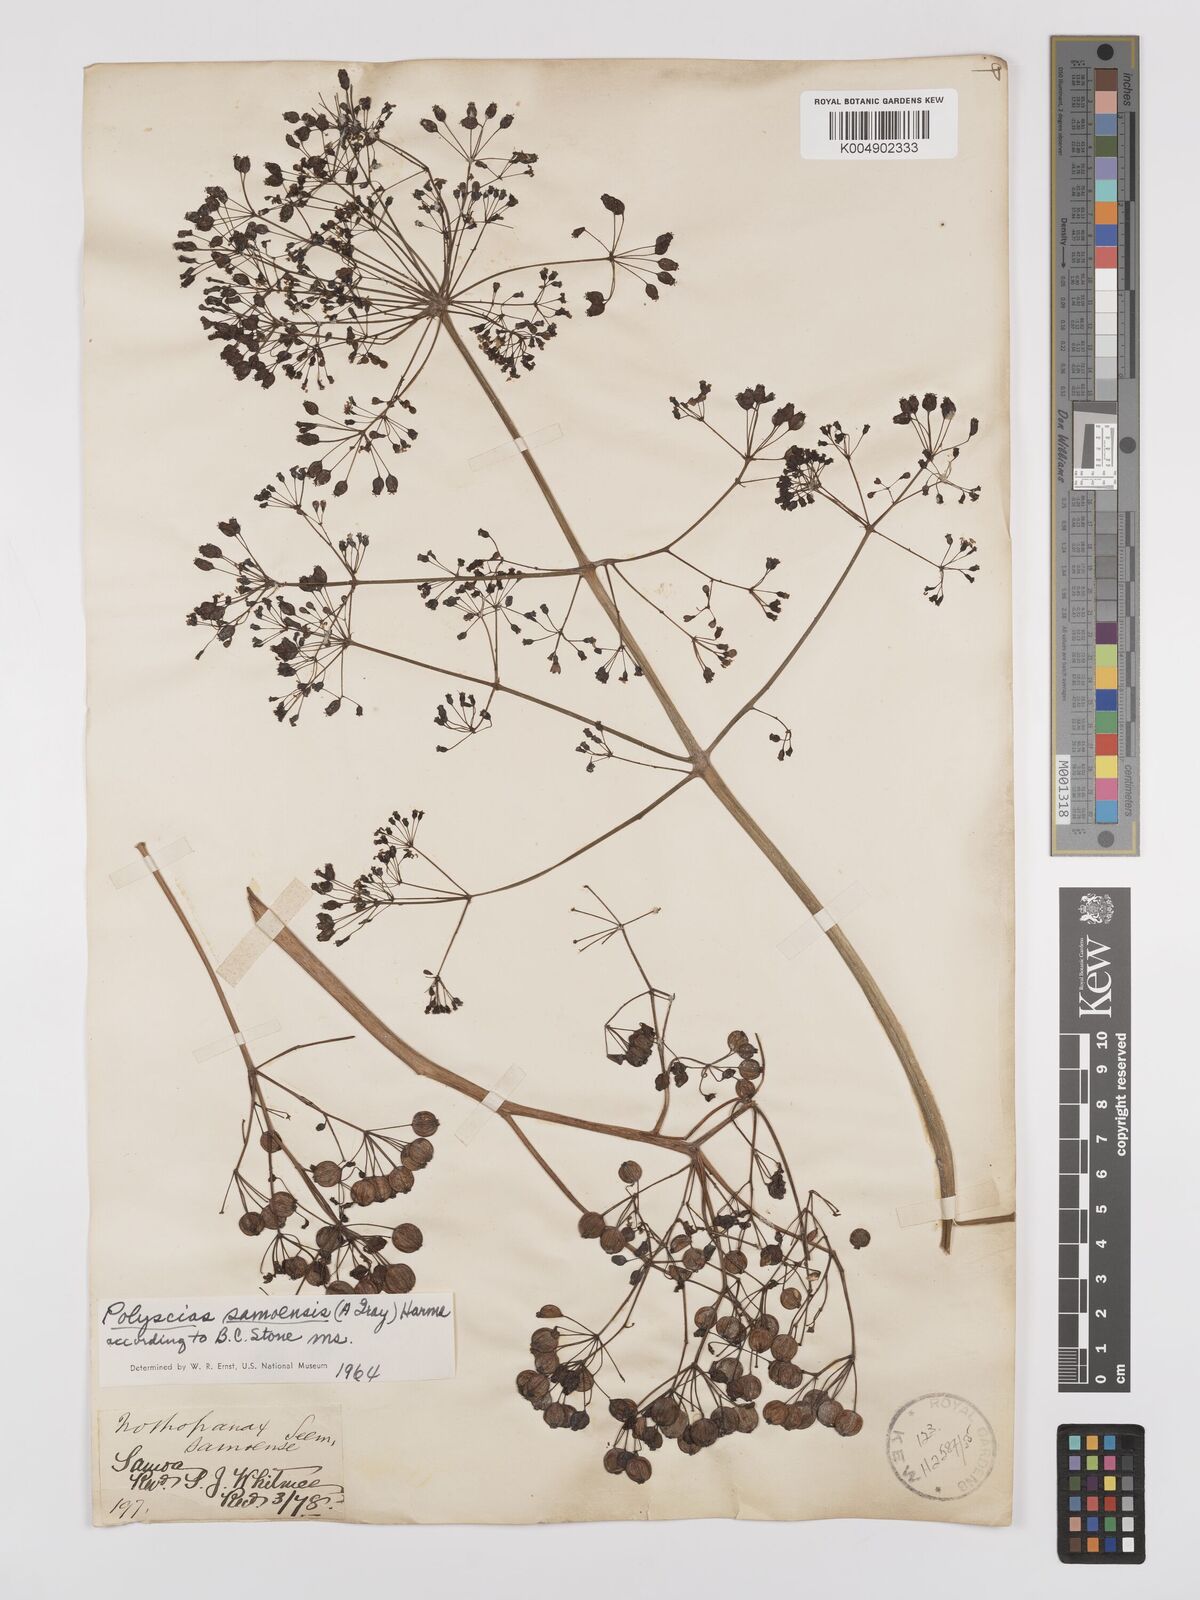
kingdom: Plantae
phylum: Tracheophyta
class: Magnoliopsida
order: Apiales
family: Araliaceae
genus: Polyscias
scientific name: Polyscias samoensis
